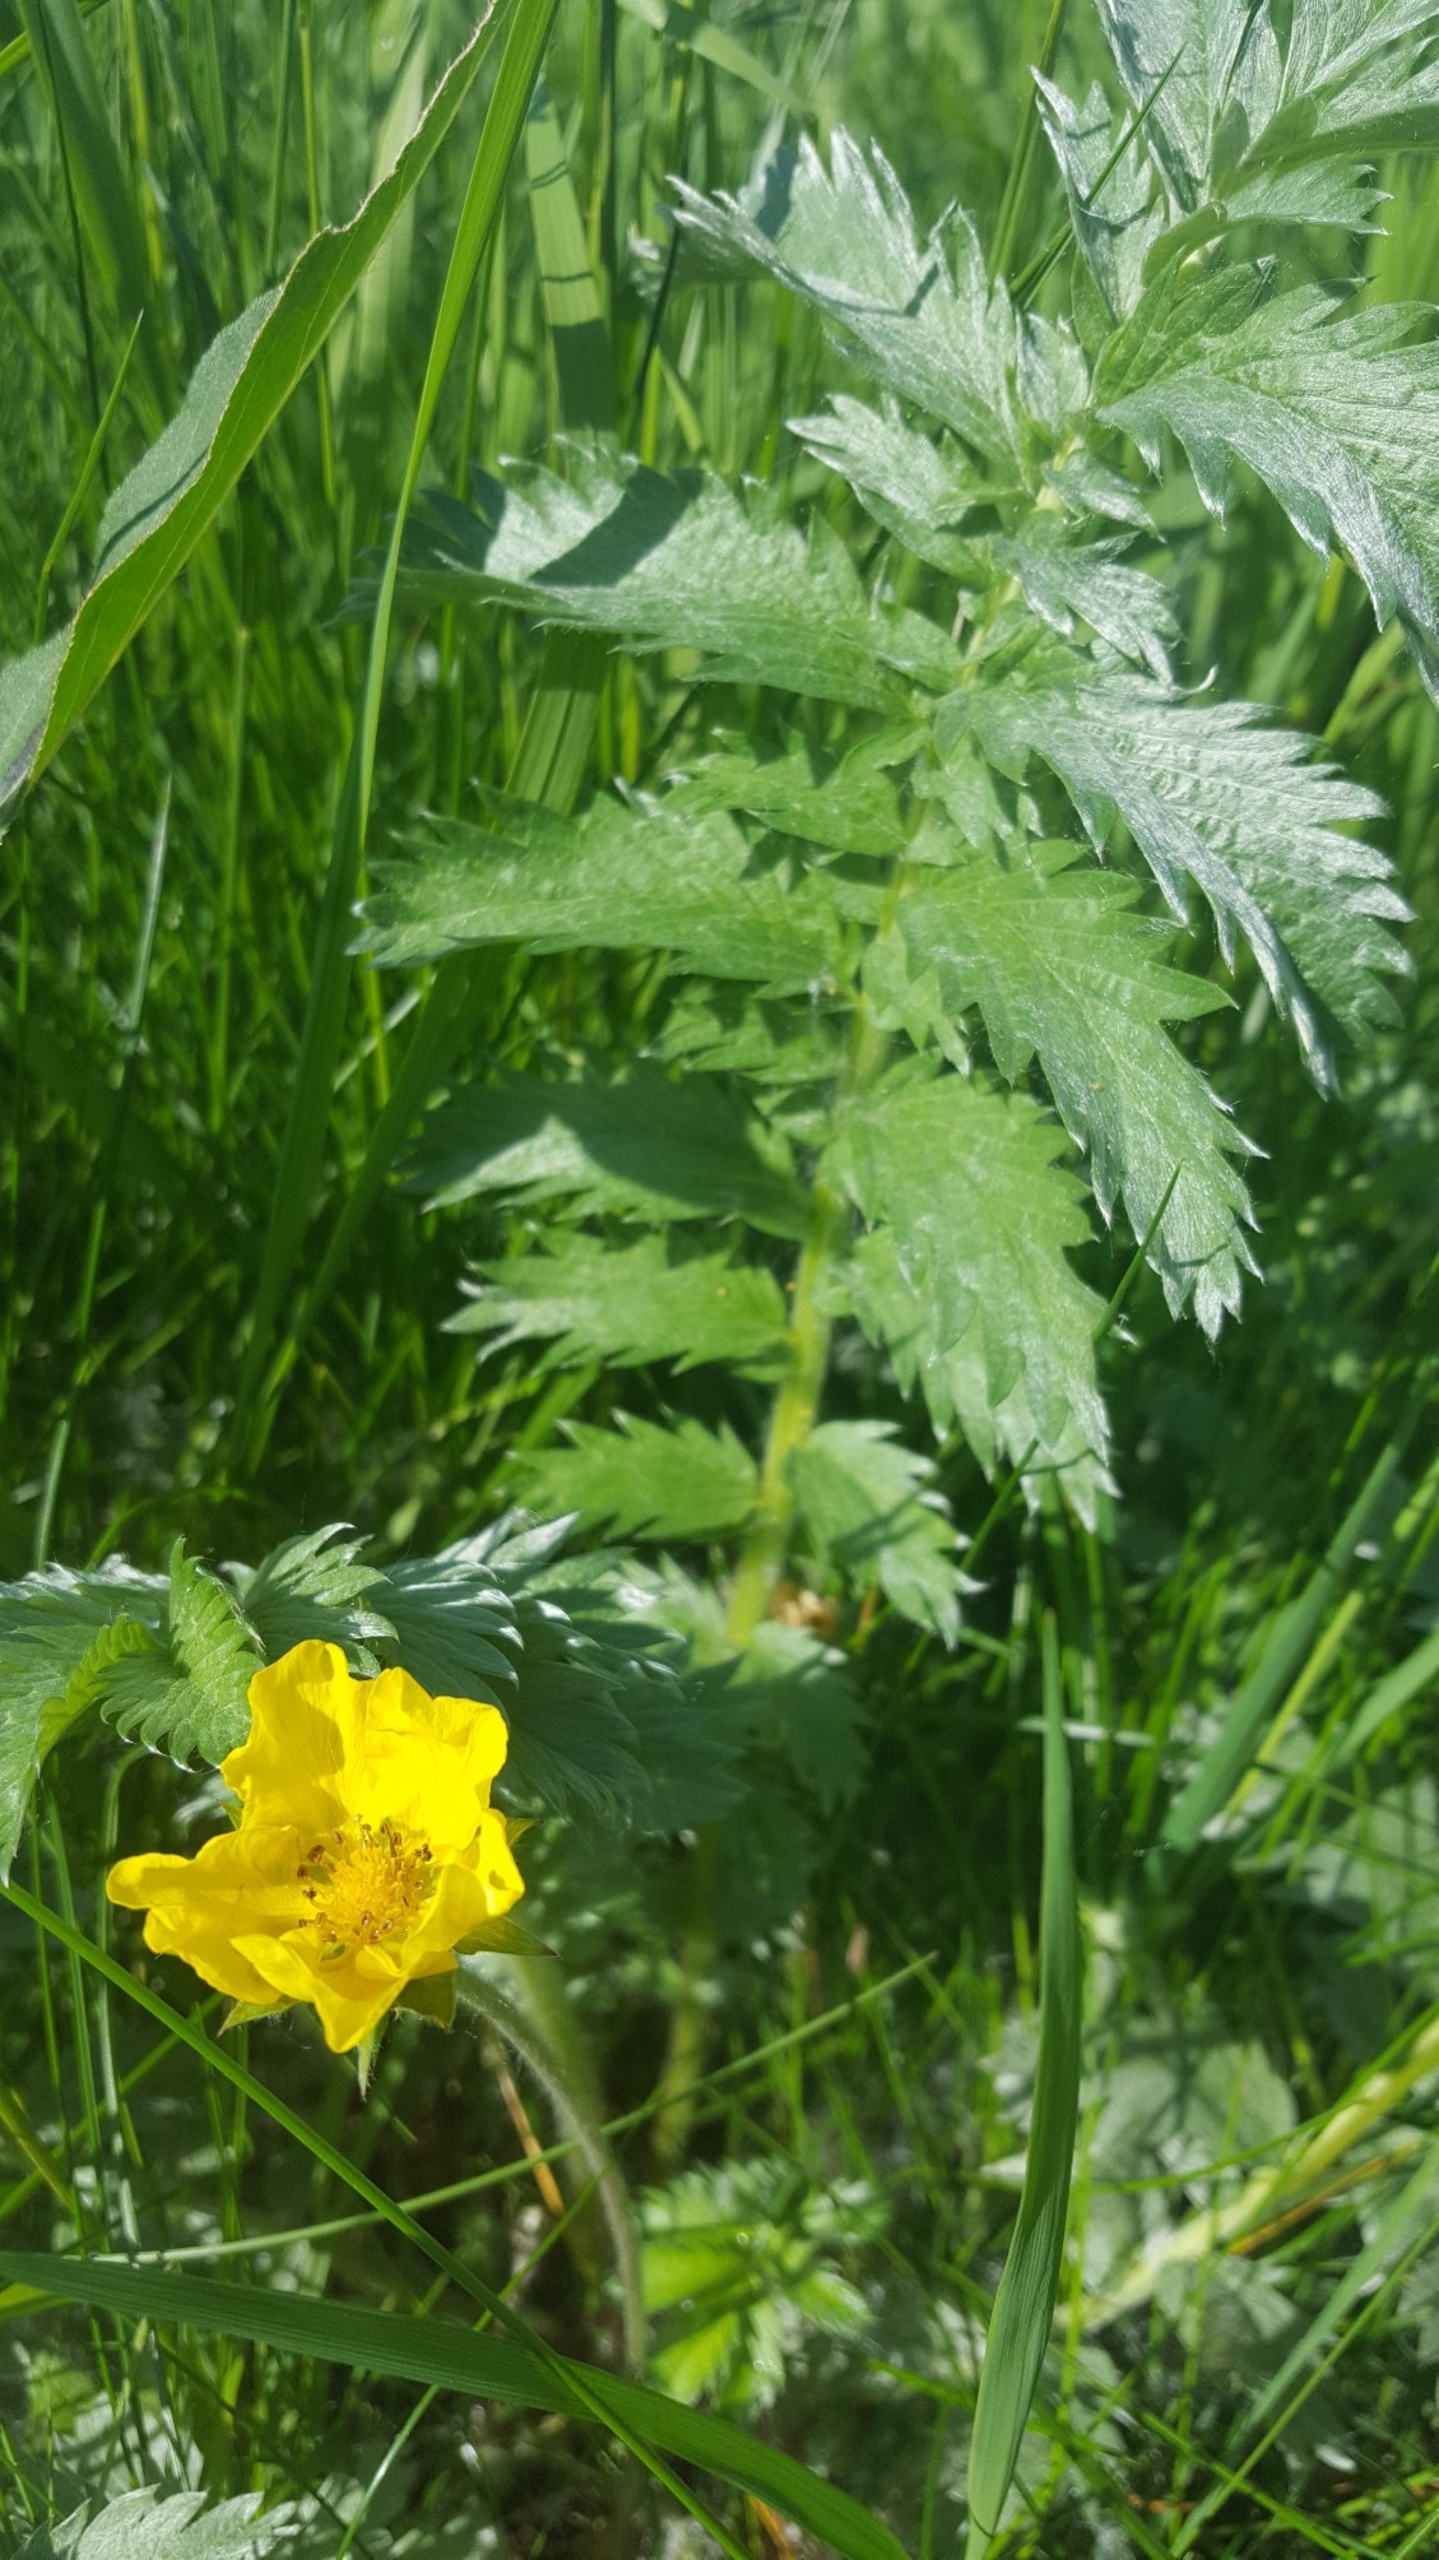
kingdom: Plantae
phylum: Tracheophyta
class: Magnoliopsida
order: Rosales
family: Rosaceae
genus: Argentina
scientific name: Argentina anserina
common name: Gåsepotentil
